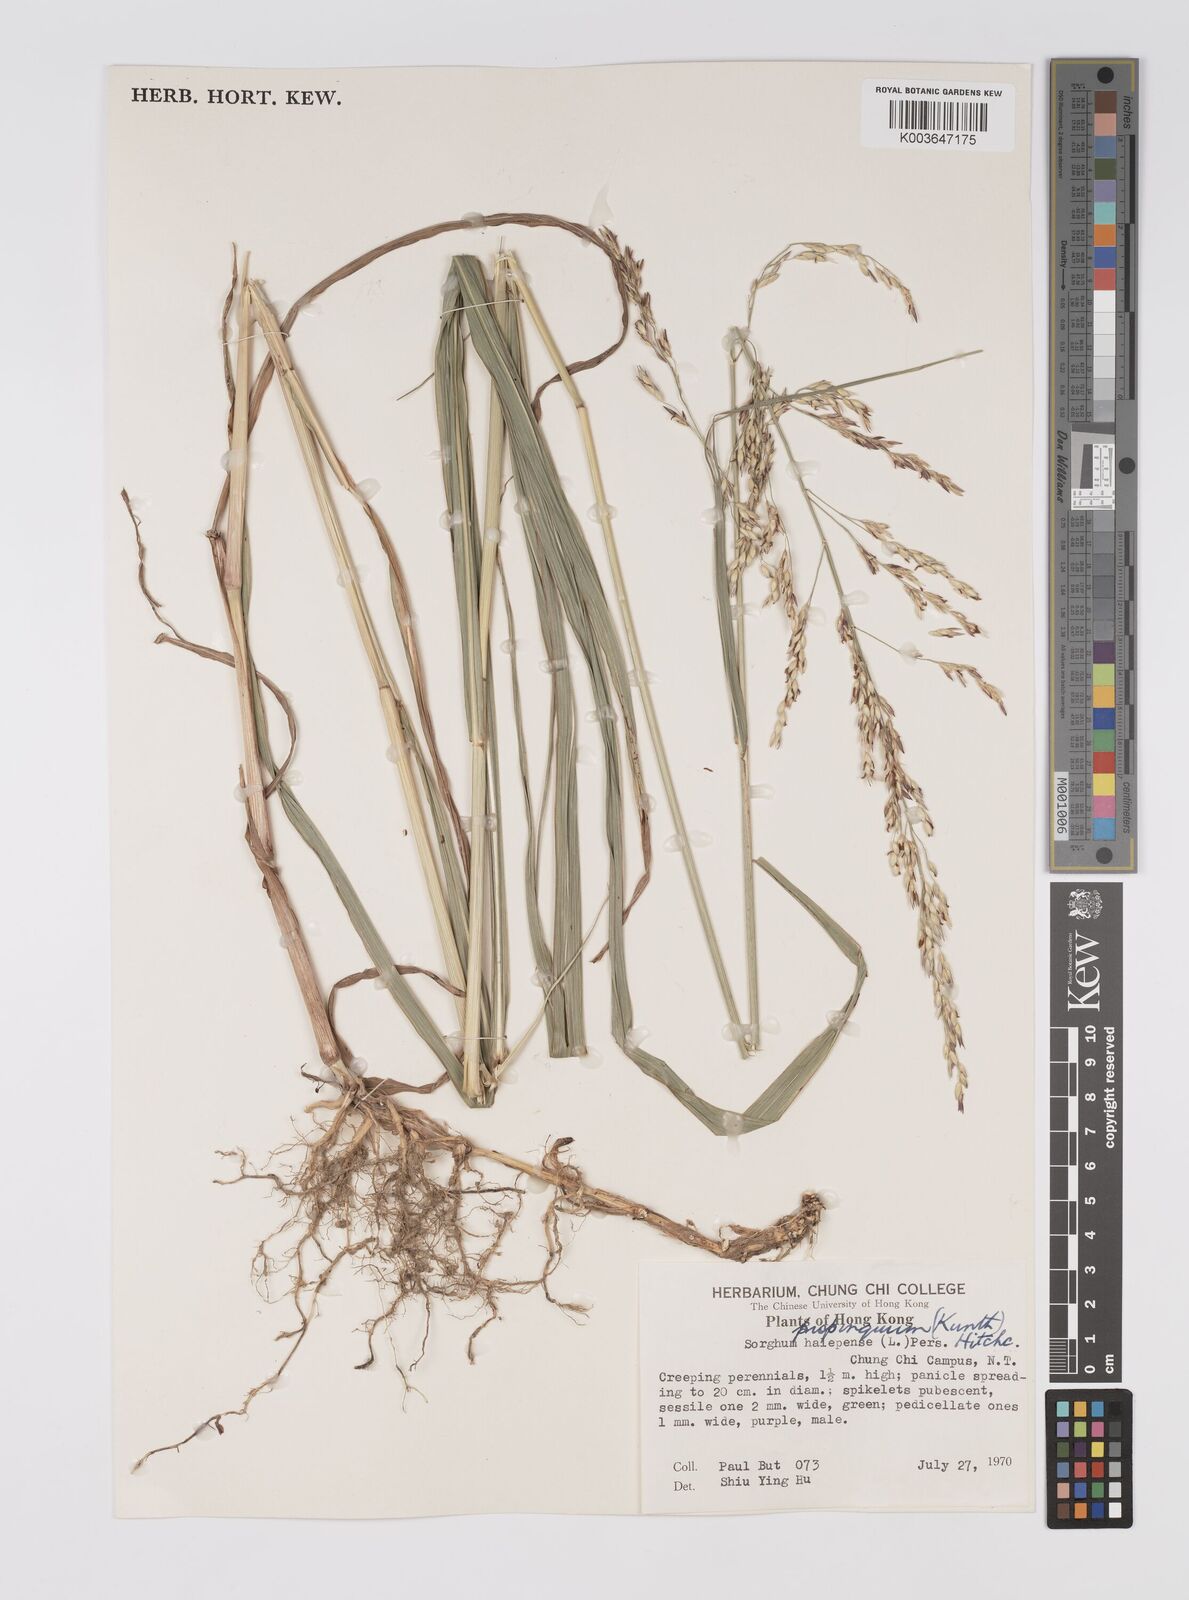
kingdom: Plantae
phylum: Tracheophyta
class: Liliopsida
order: Poales
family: Poaceae
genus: Sorghum
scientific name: Sorghum halepense
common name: Johnson-grass
